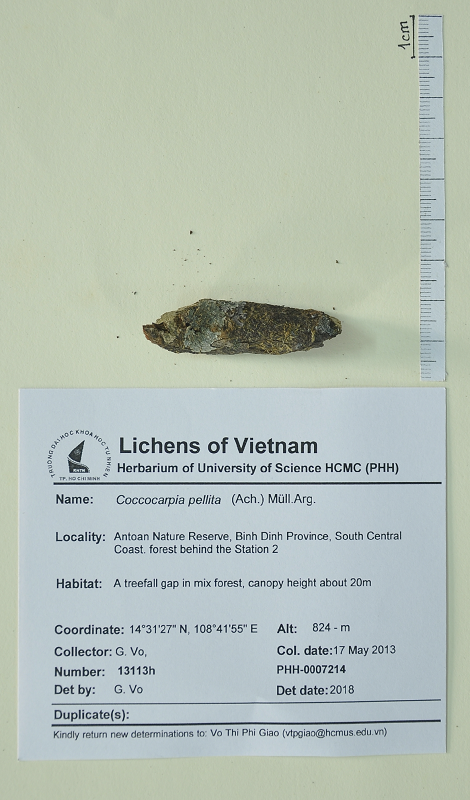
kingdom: Fungi
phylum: Ascomycota
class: Lecanoromycetes
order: Peltigerales
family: Coccocarpiaceae
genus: Coccocarpia
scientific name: Coccocarpia pellita
